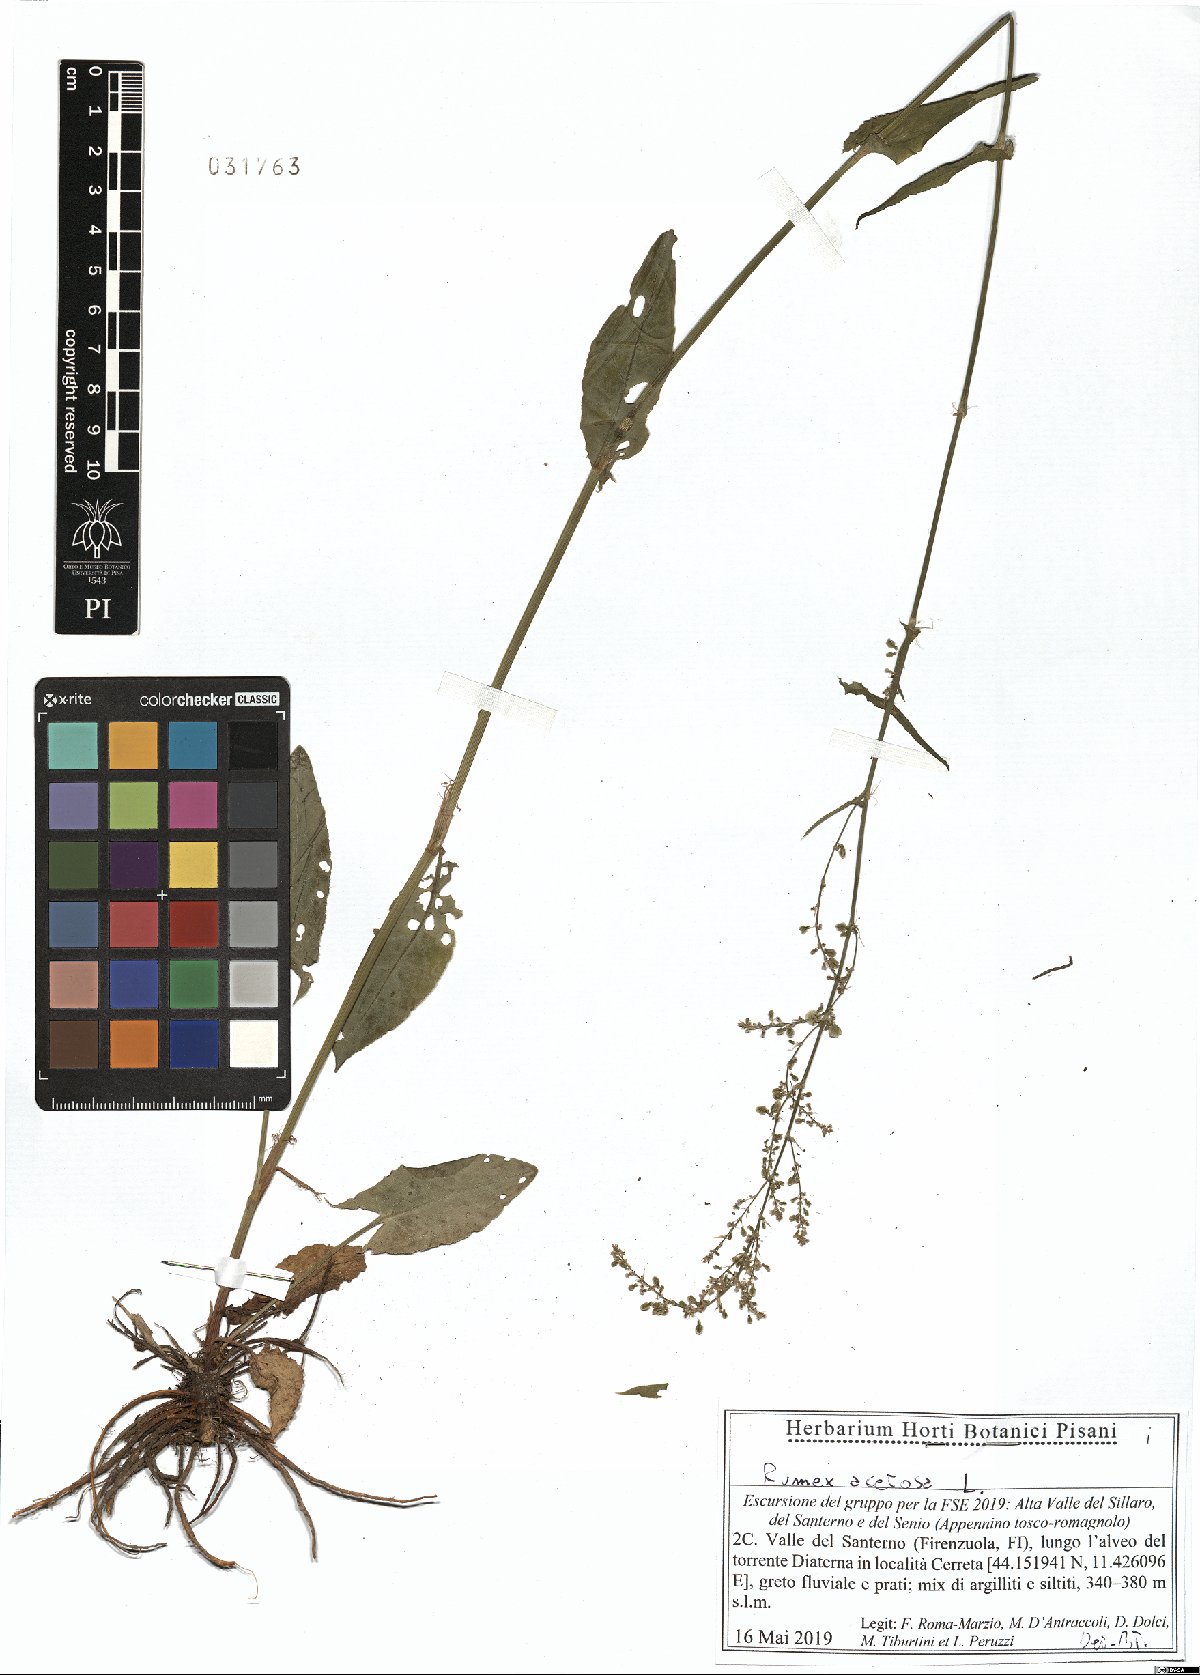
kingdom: Plantae
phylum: Tracheophyta
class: Magnoliopsida
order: Caryophyllales
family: Polygonaceae
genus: Rumex
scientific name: Rumex acetosa
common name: Garden sorrel
